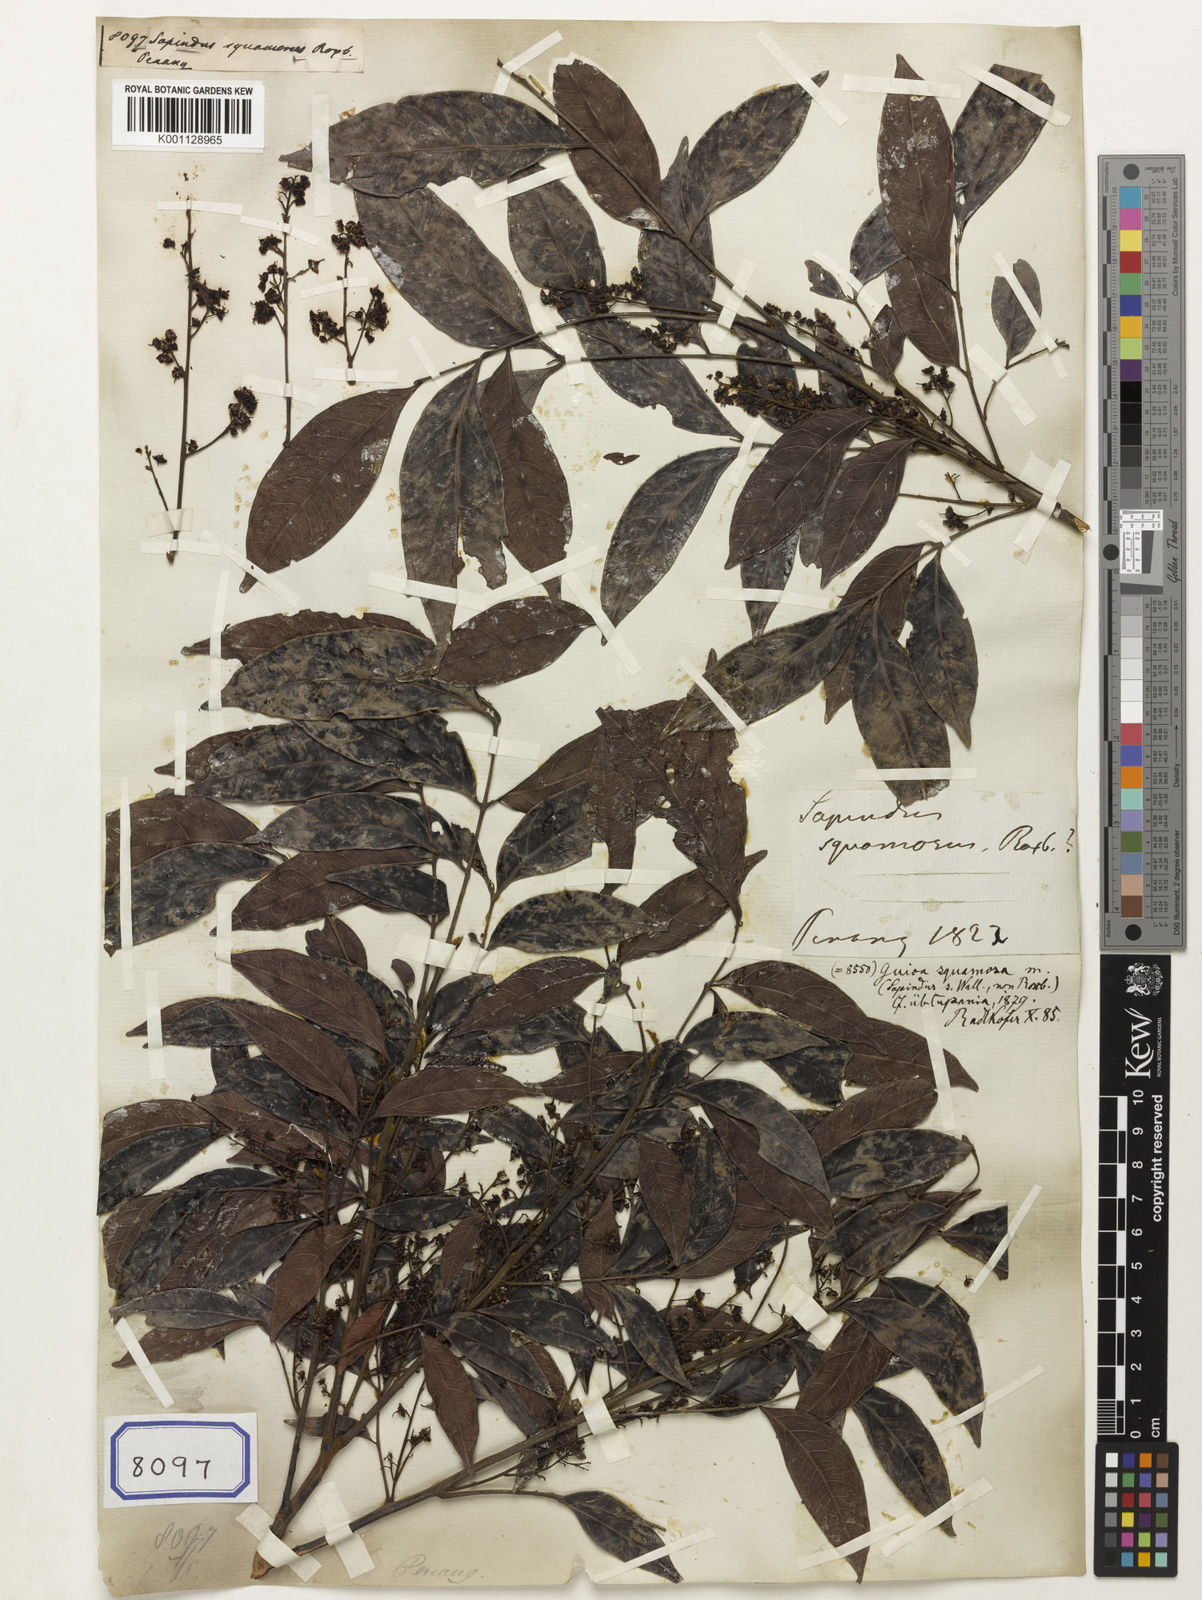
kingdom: Plantae
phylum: Tracheophyta
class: Magnoliopsida
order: Sapindales
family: Sapindaceae
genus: Sarcopteryx
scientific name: Sarcopteryx squamosa
